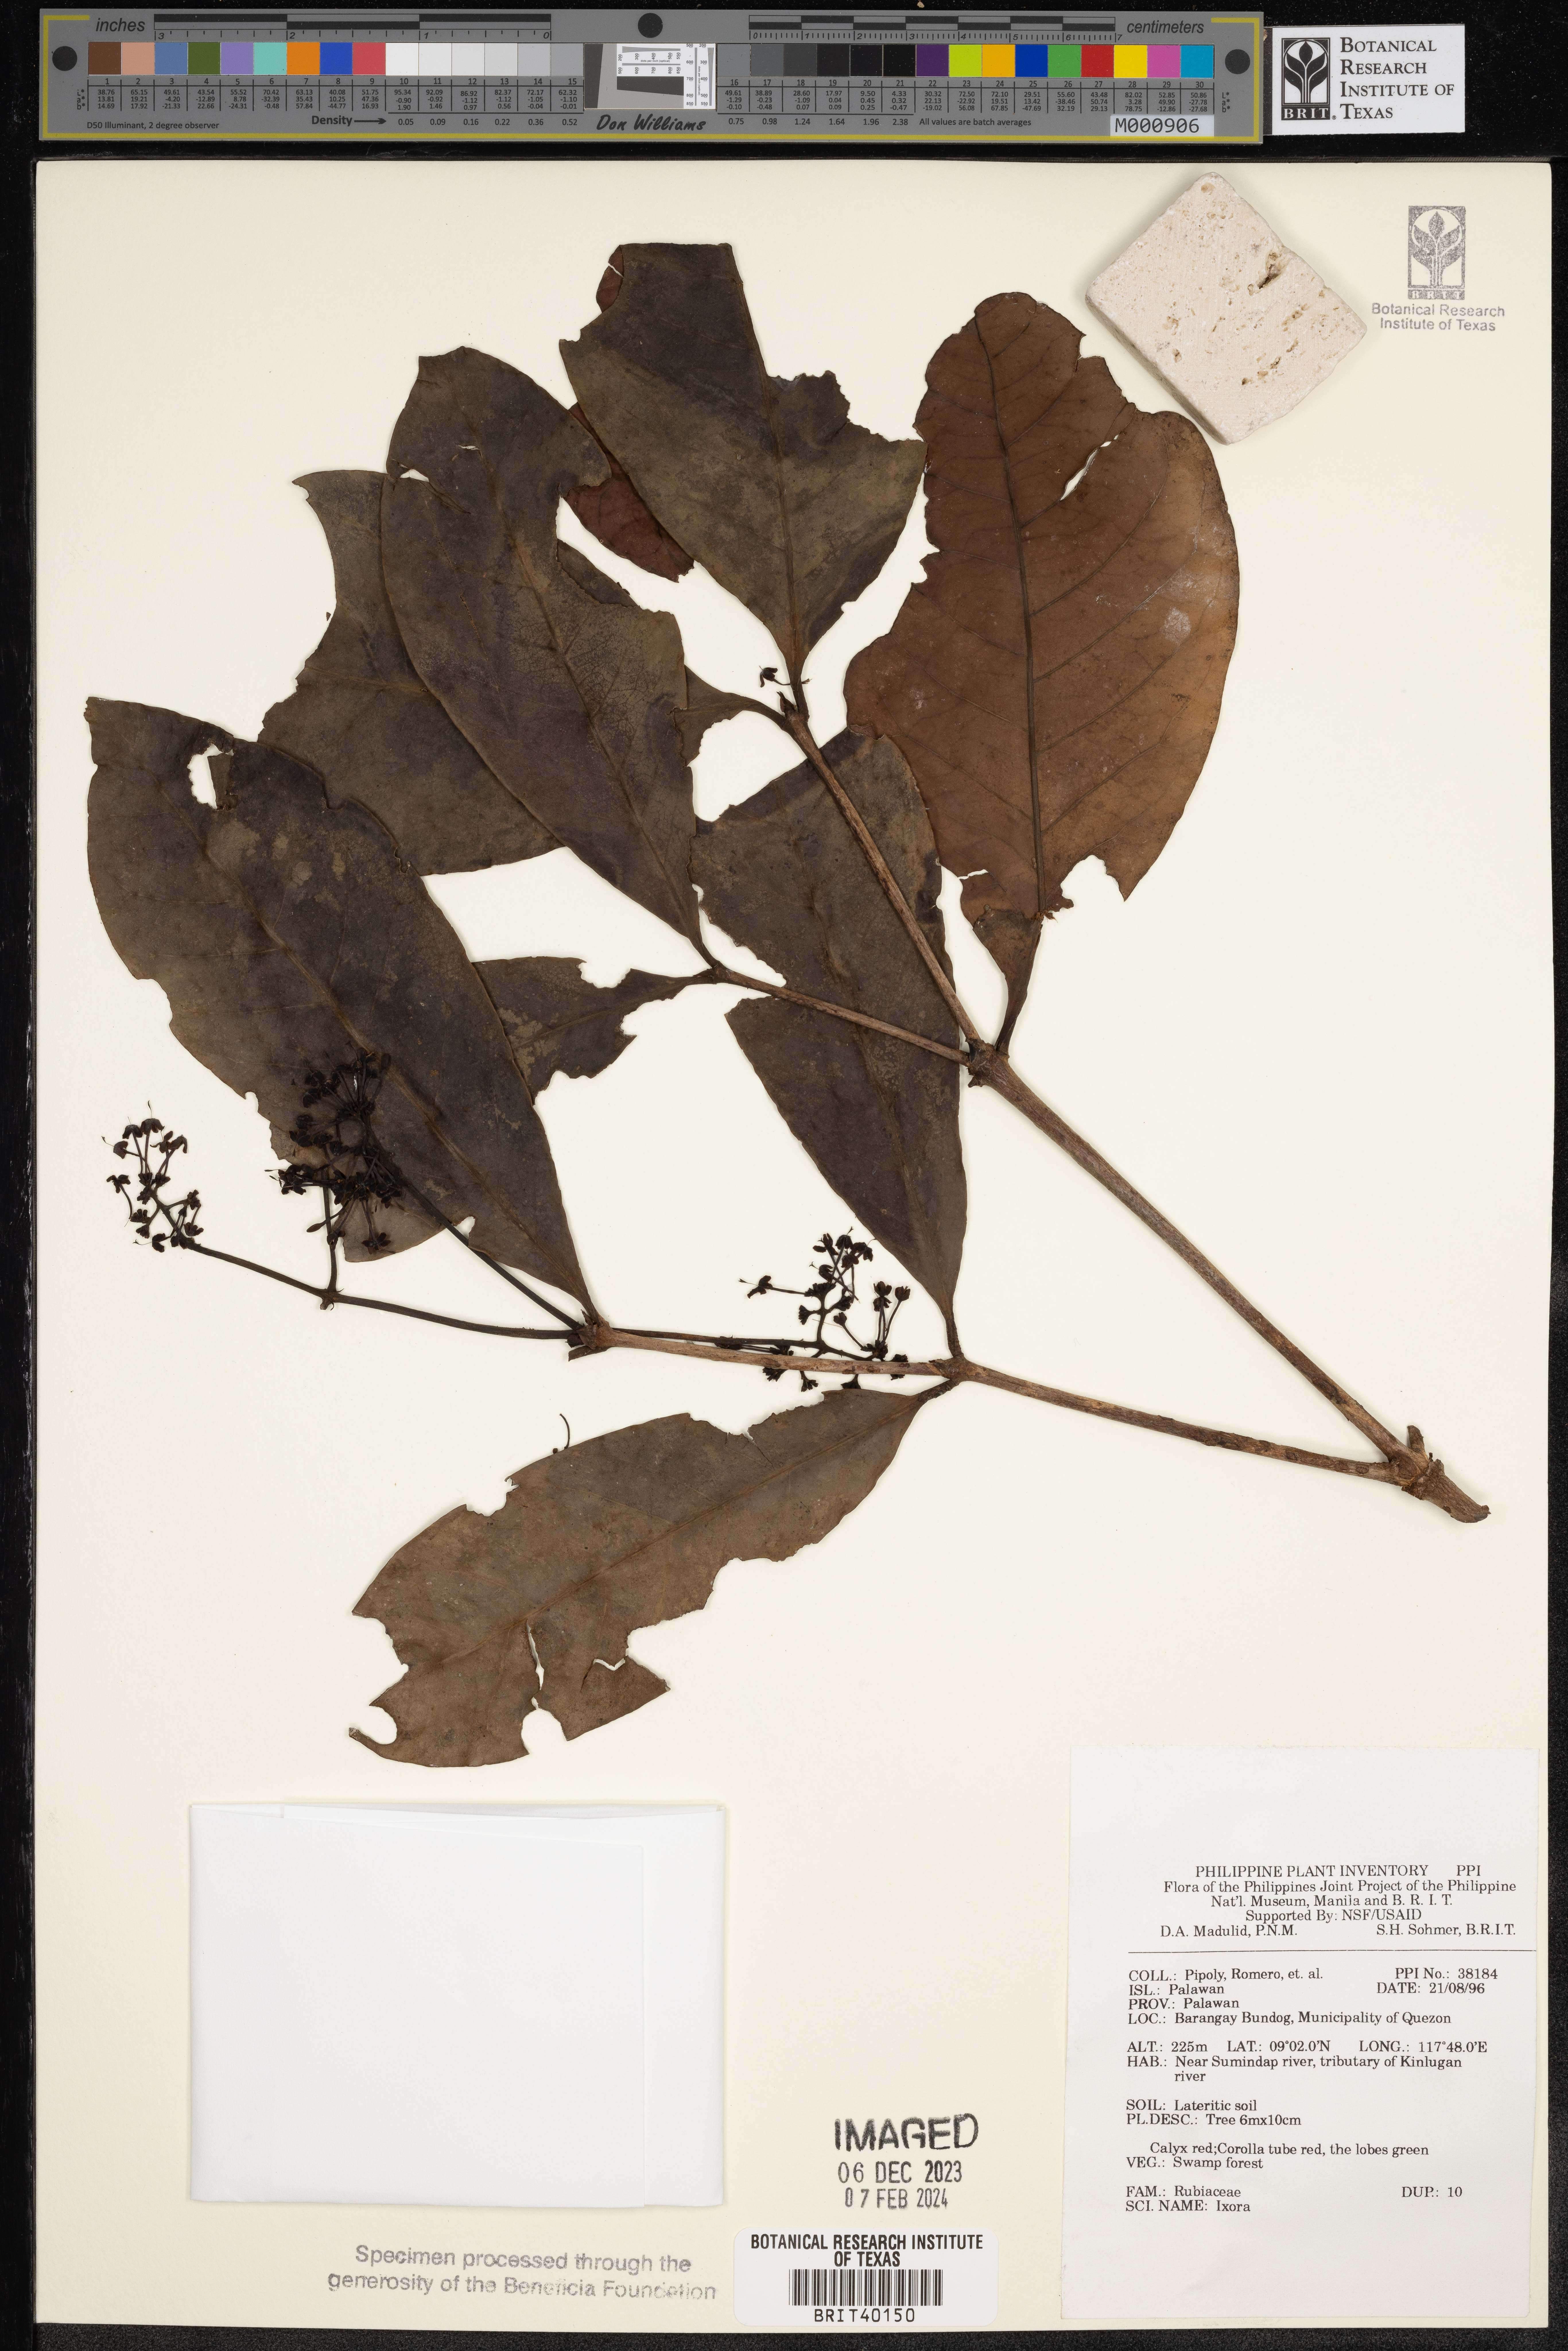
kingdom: Plantae
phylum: Tracheophyta
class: Magnoliopsida
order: Gentianales
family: Rubiaceae
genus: Ixora
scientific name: Ixora
